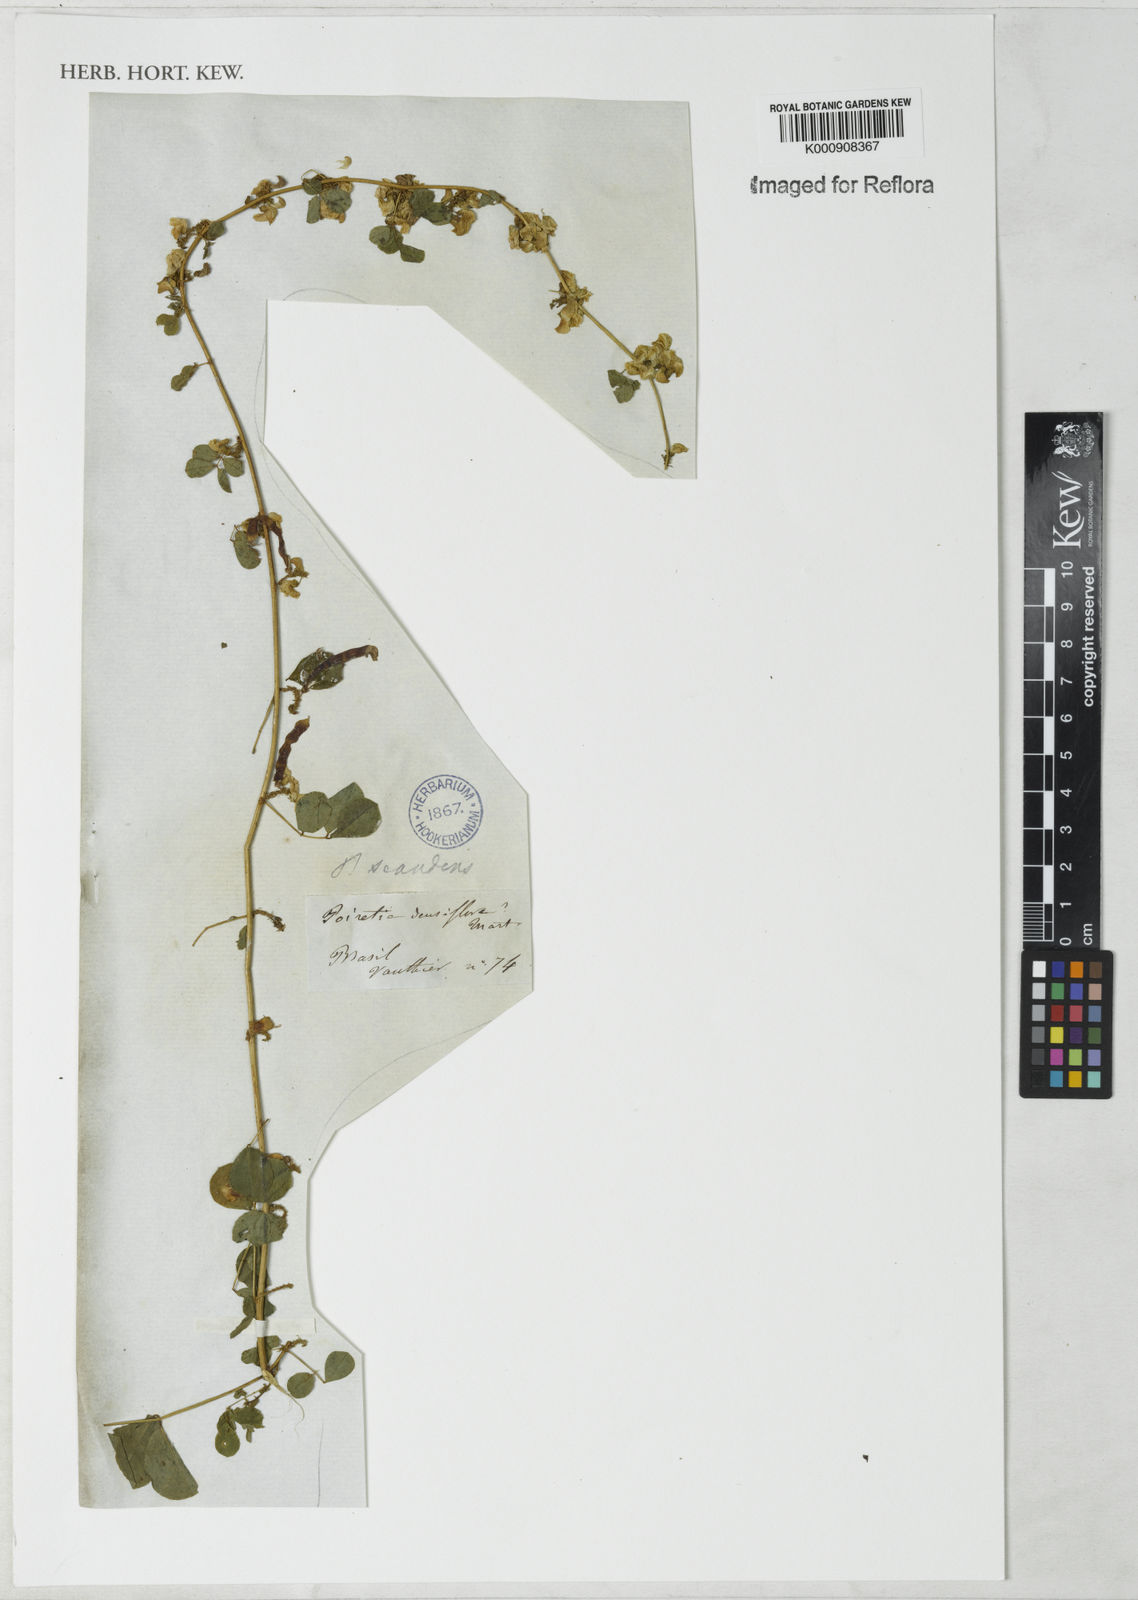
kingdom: Plantae
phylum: Tracheophyta
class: Magnoliopsida
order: Fabales
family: Fabaceae
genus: Poiretia
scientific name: Poiretia punctata
